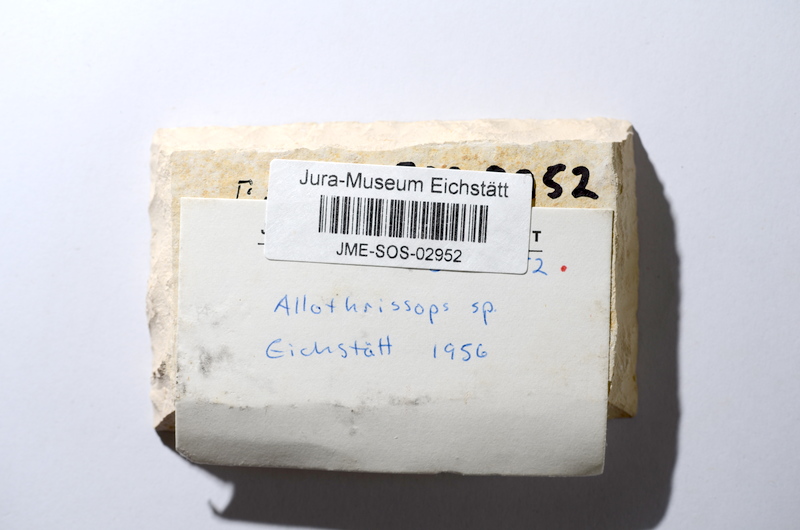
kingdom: Animalia
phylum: Chordata
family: Allothrissopidae
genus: Allothrissops
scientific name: Allothrissops
